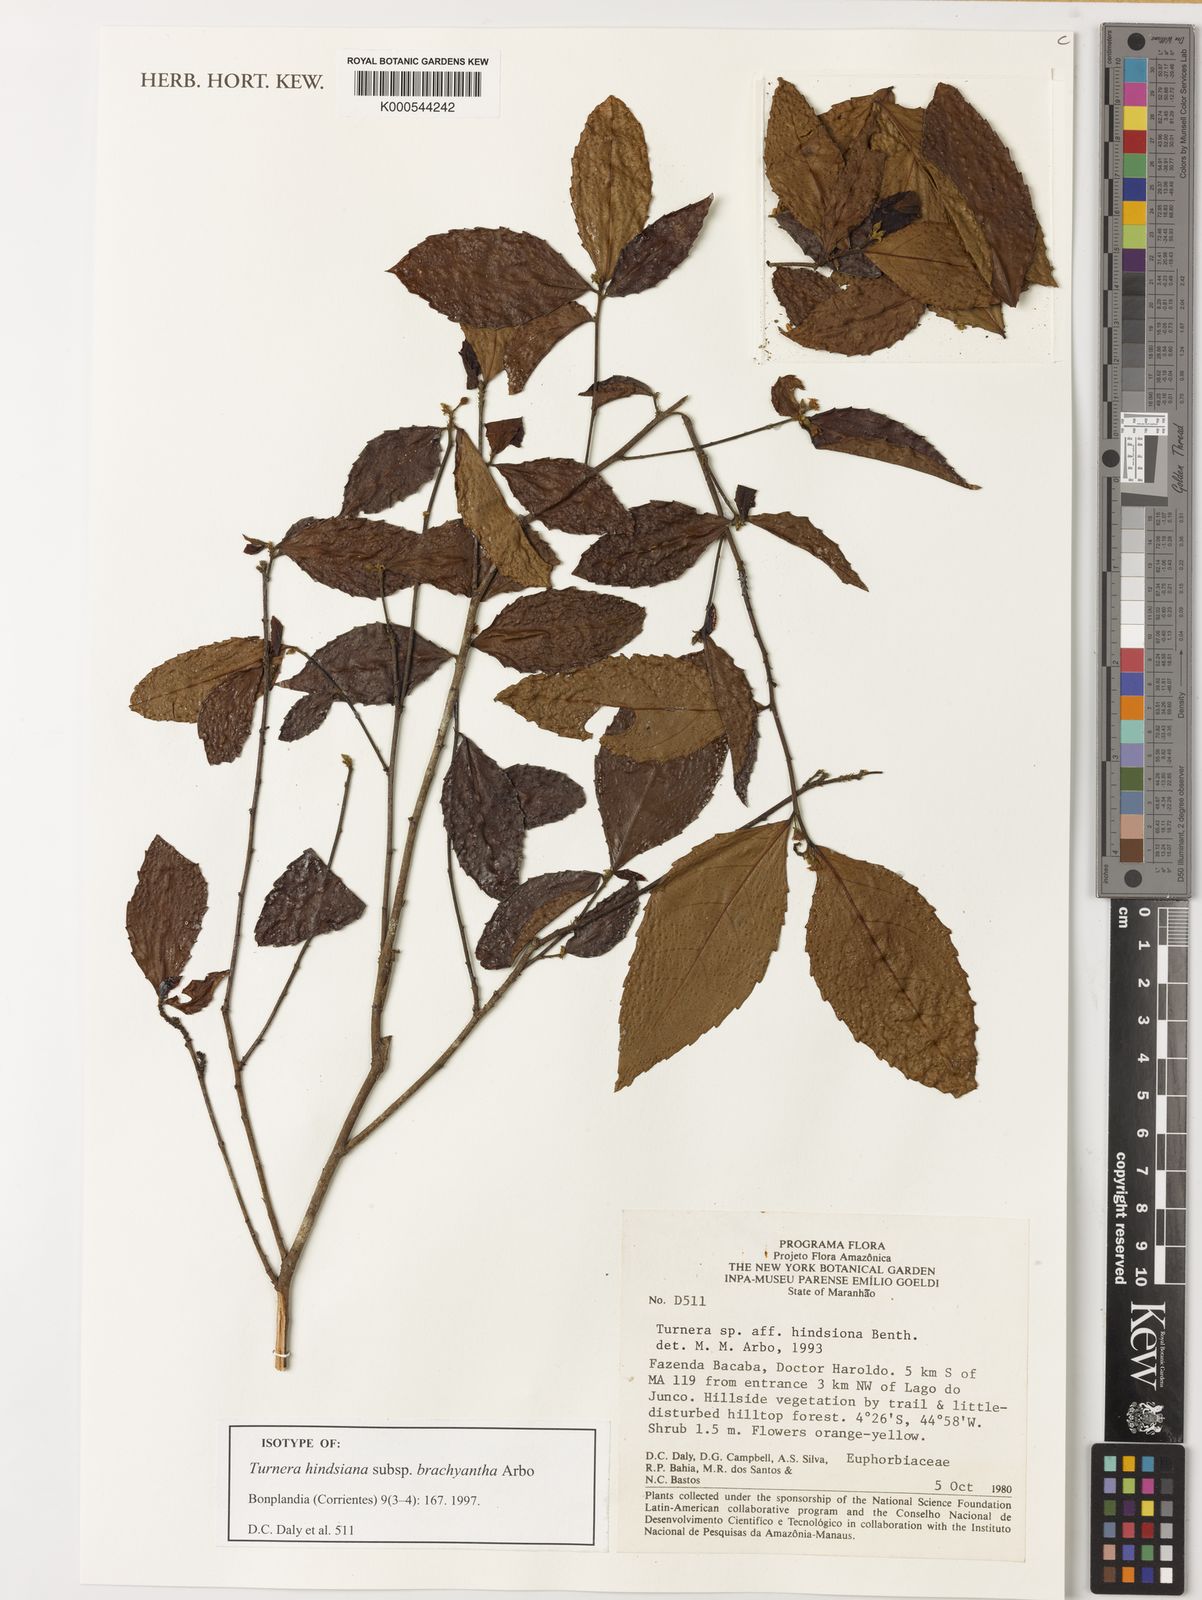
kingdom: Plantae
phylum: Tracheophyta
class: Magnoliopsida
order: Malpighiales
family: Turneraceae
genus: Turnera
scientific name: Turnera hindsiana
